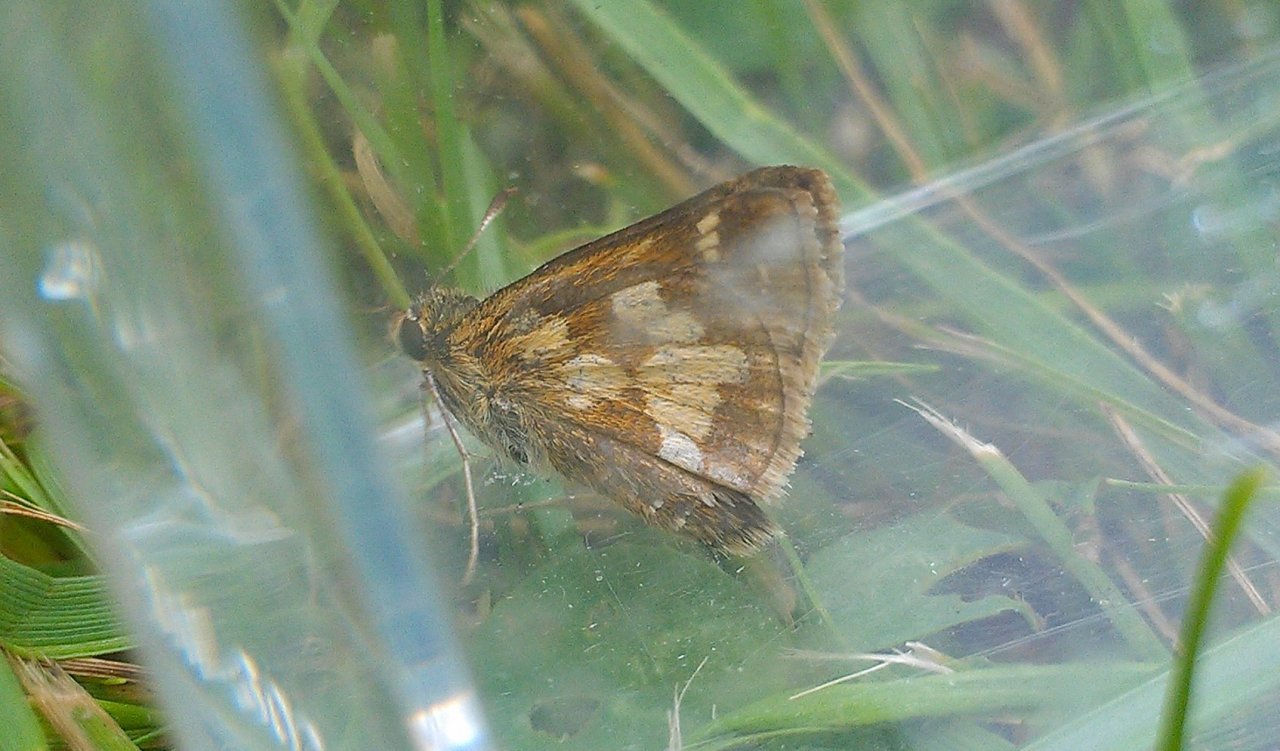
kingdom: Animalia
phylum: Arthropoda
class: Insecta
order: Lepidoptera
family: Hesperiidae
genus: Polites
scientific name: Polites coras
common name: Peck's Skipper
